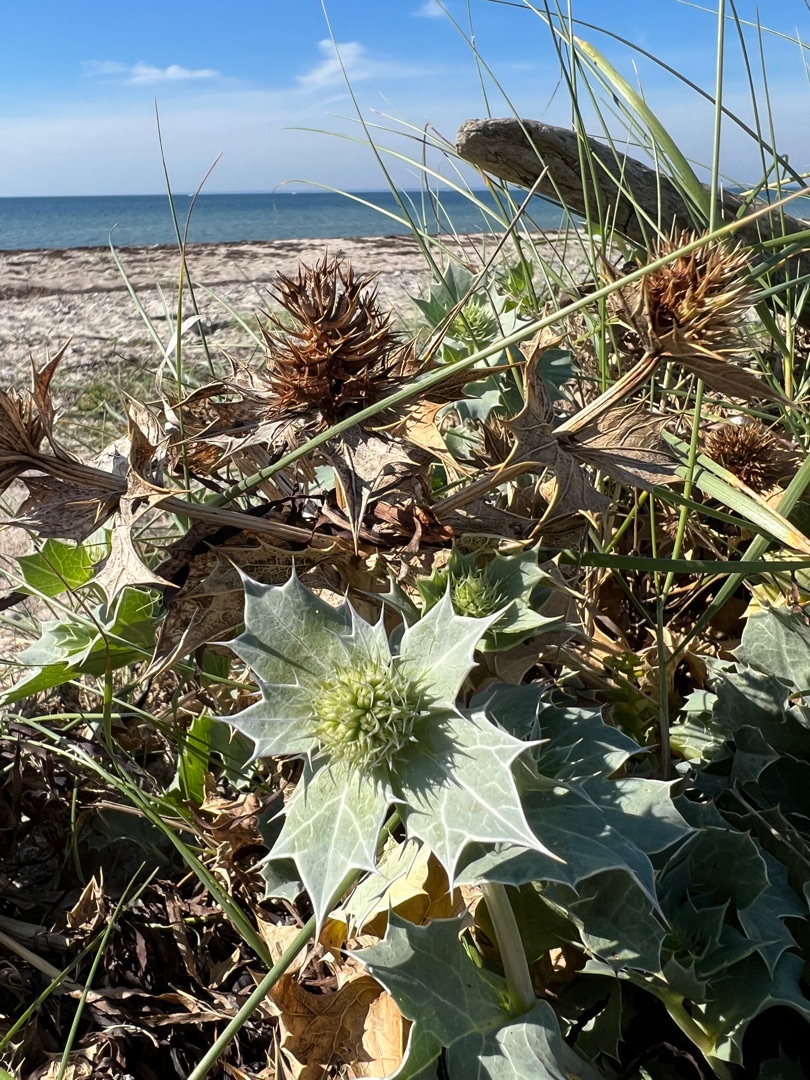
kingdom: Plantae
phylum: Tracheophyta
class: Magnoliopsida
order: Apiales
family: Apiaceae
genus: Eryngium
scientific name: Eryngium maritimum
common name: Strand-mandstro
